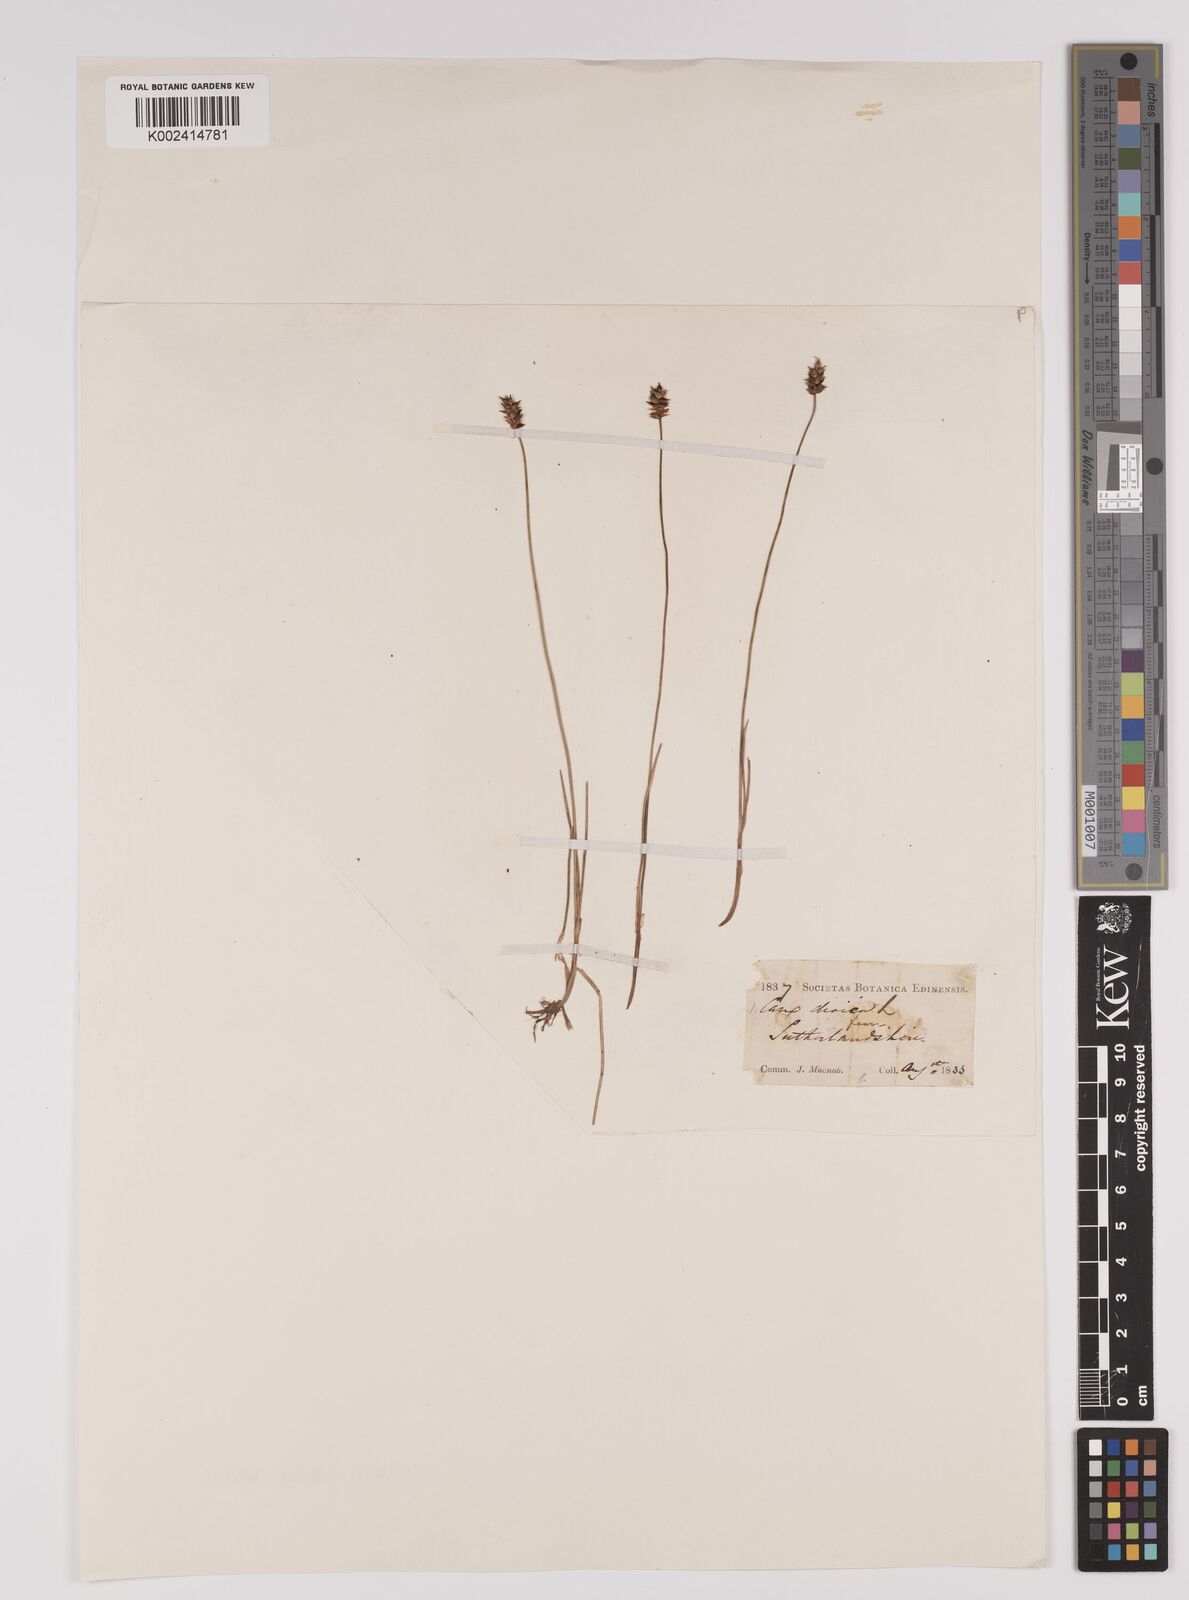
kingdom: Plantae
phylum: Tracheophyta
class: Liliopsida
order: Poales
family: Cyperaceae
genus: Carex
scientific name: Carex dioica
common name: Dioecious sedge
